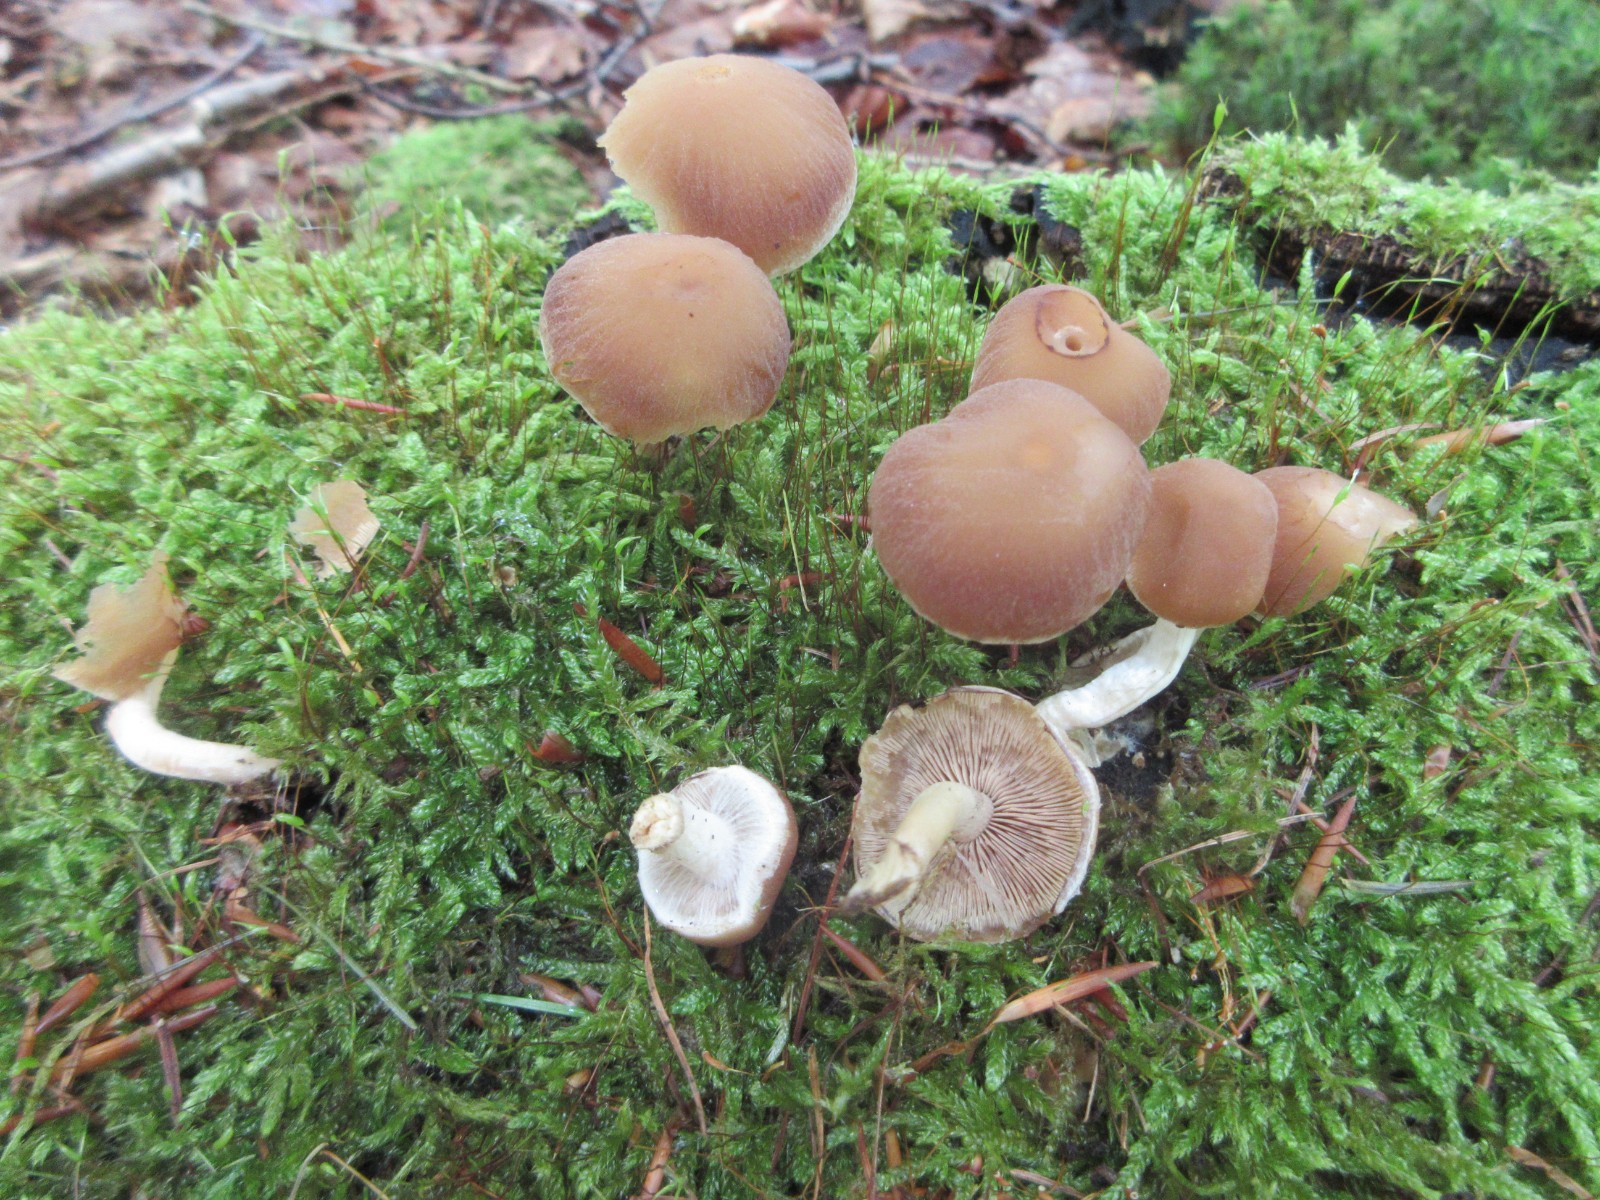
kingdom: Fungi
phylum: Basidiomycota
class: Agaricomycetes
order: Agaricales
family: Psathyrellaceae
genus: Psathyrella
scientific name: Psathyrella piluliformis
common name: lysstokket mørkhat
